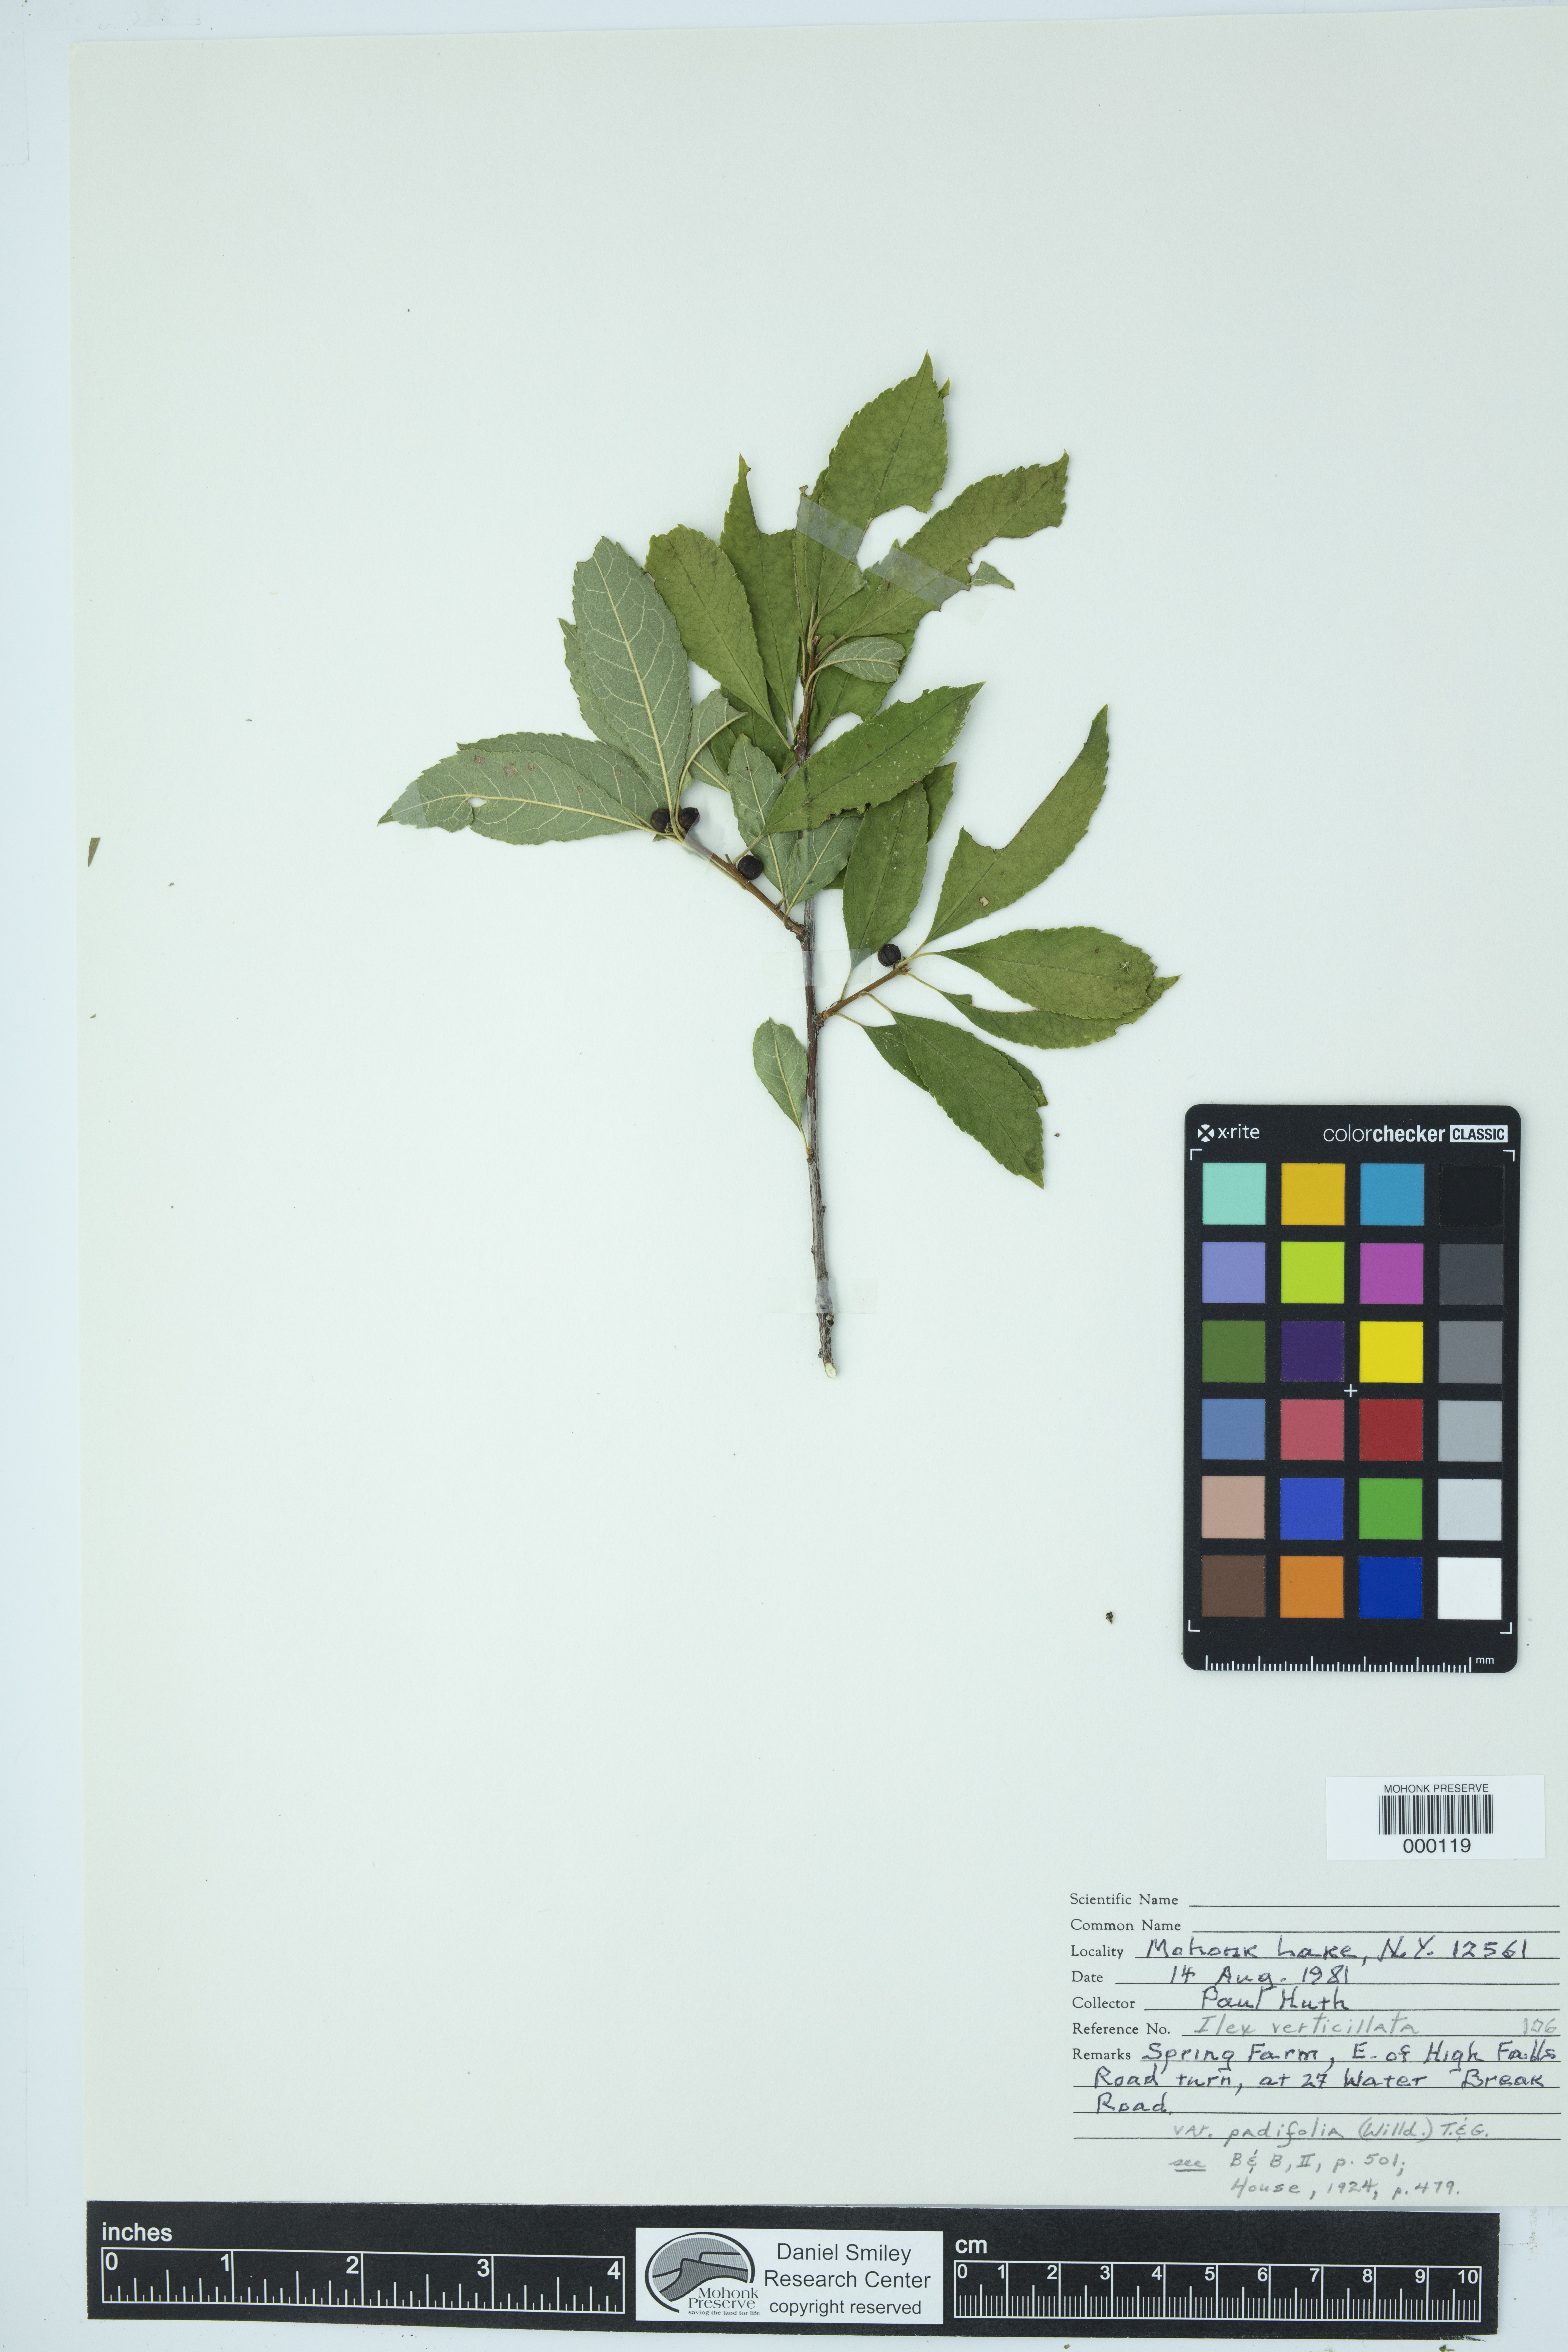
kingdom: Plantae
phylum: Tracheophyta
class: Magnoliopsida
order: Aquifoliales
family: Aquifoliaceae
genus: Ilex
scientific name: Ilex verticillata
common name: Virginia winterberry
